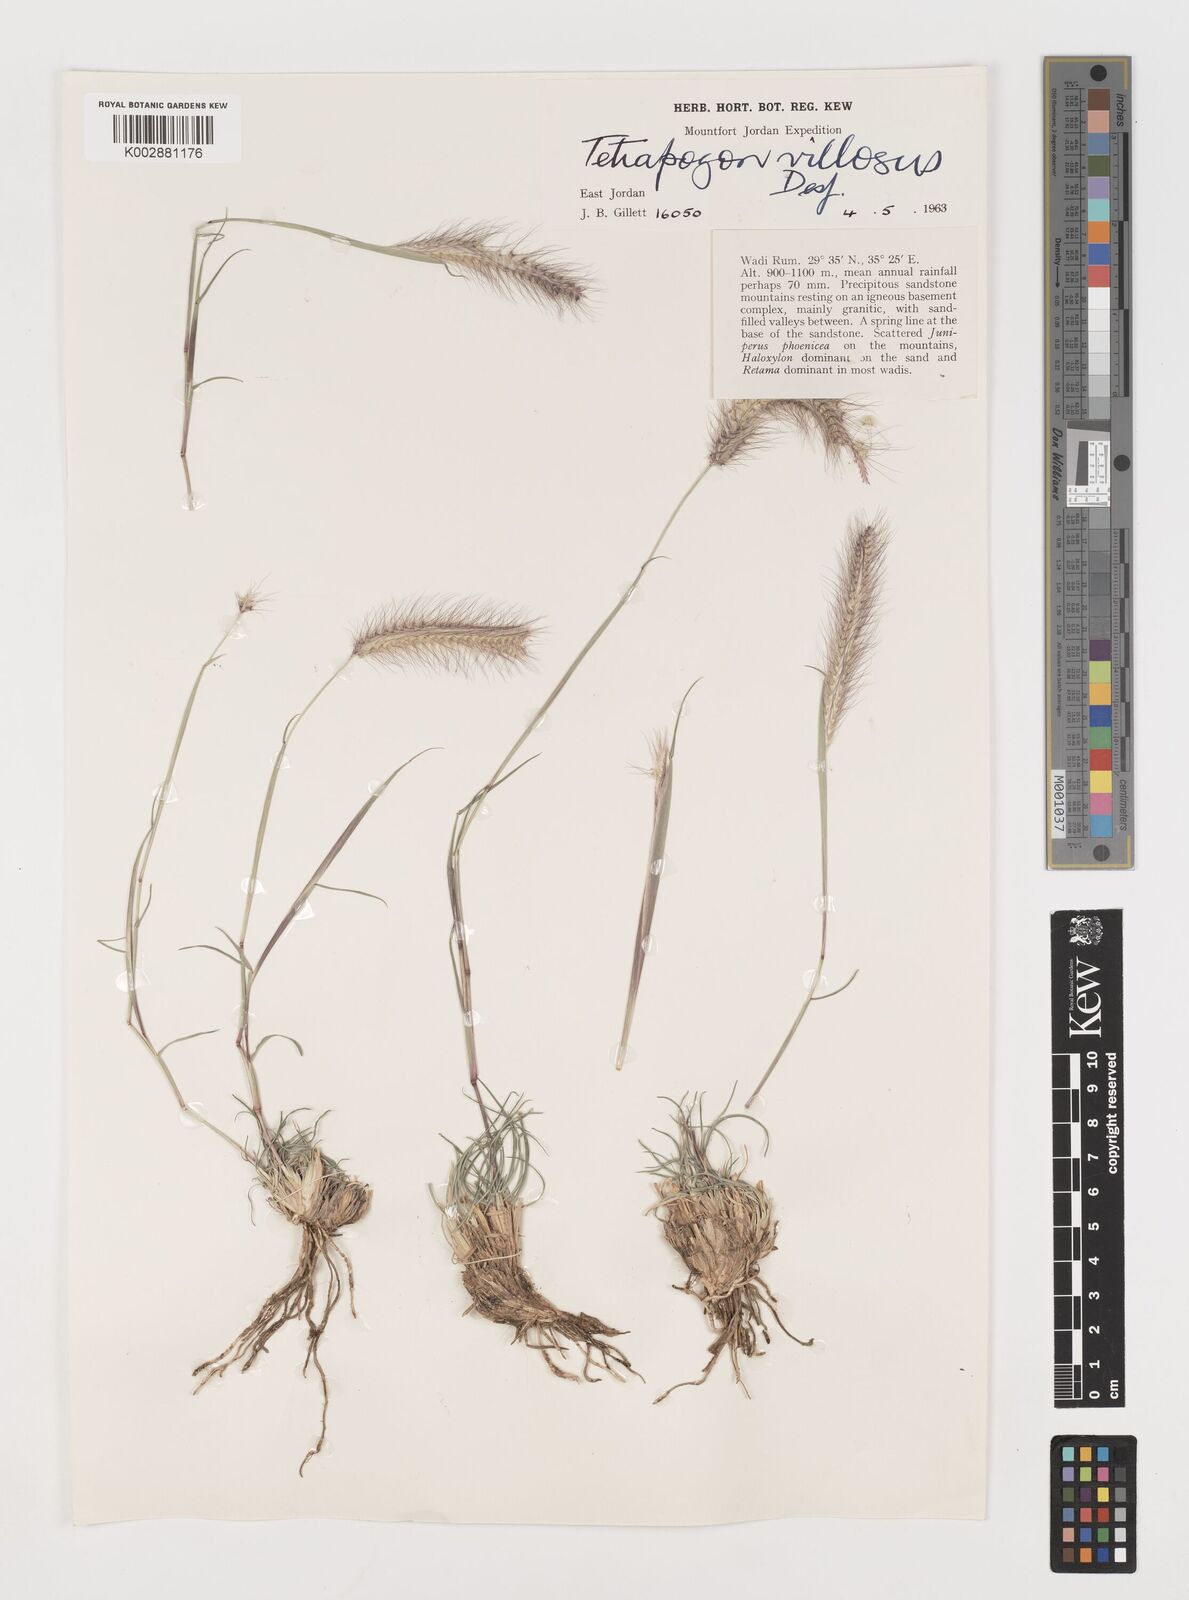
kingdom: Plantae
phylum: Tracheophyta
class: Liliopsida
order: Poales
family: Poaceae
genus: Tetrapogon
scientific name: Tetrapogon villosus
